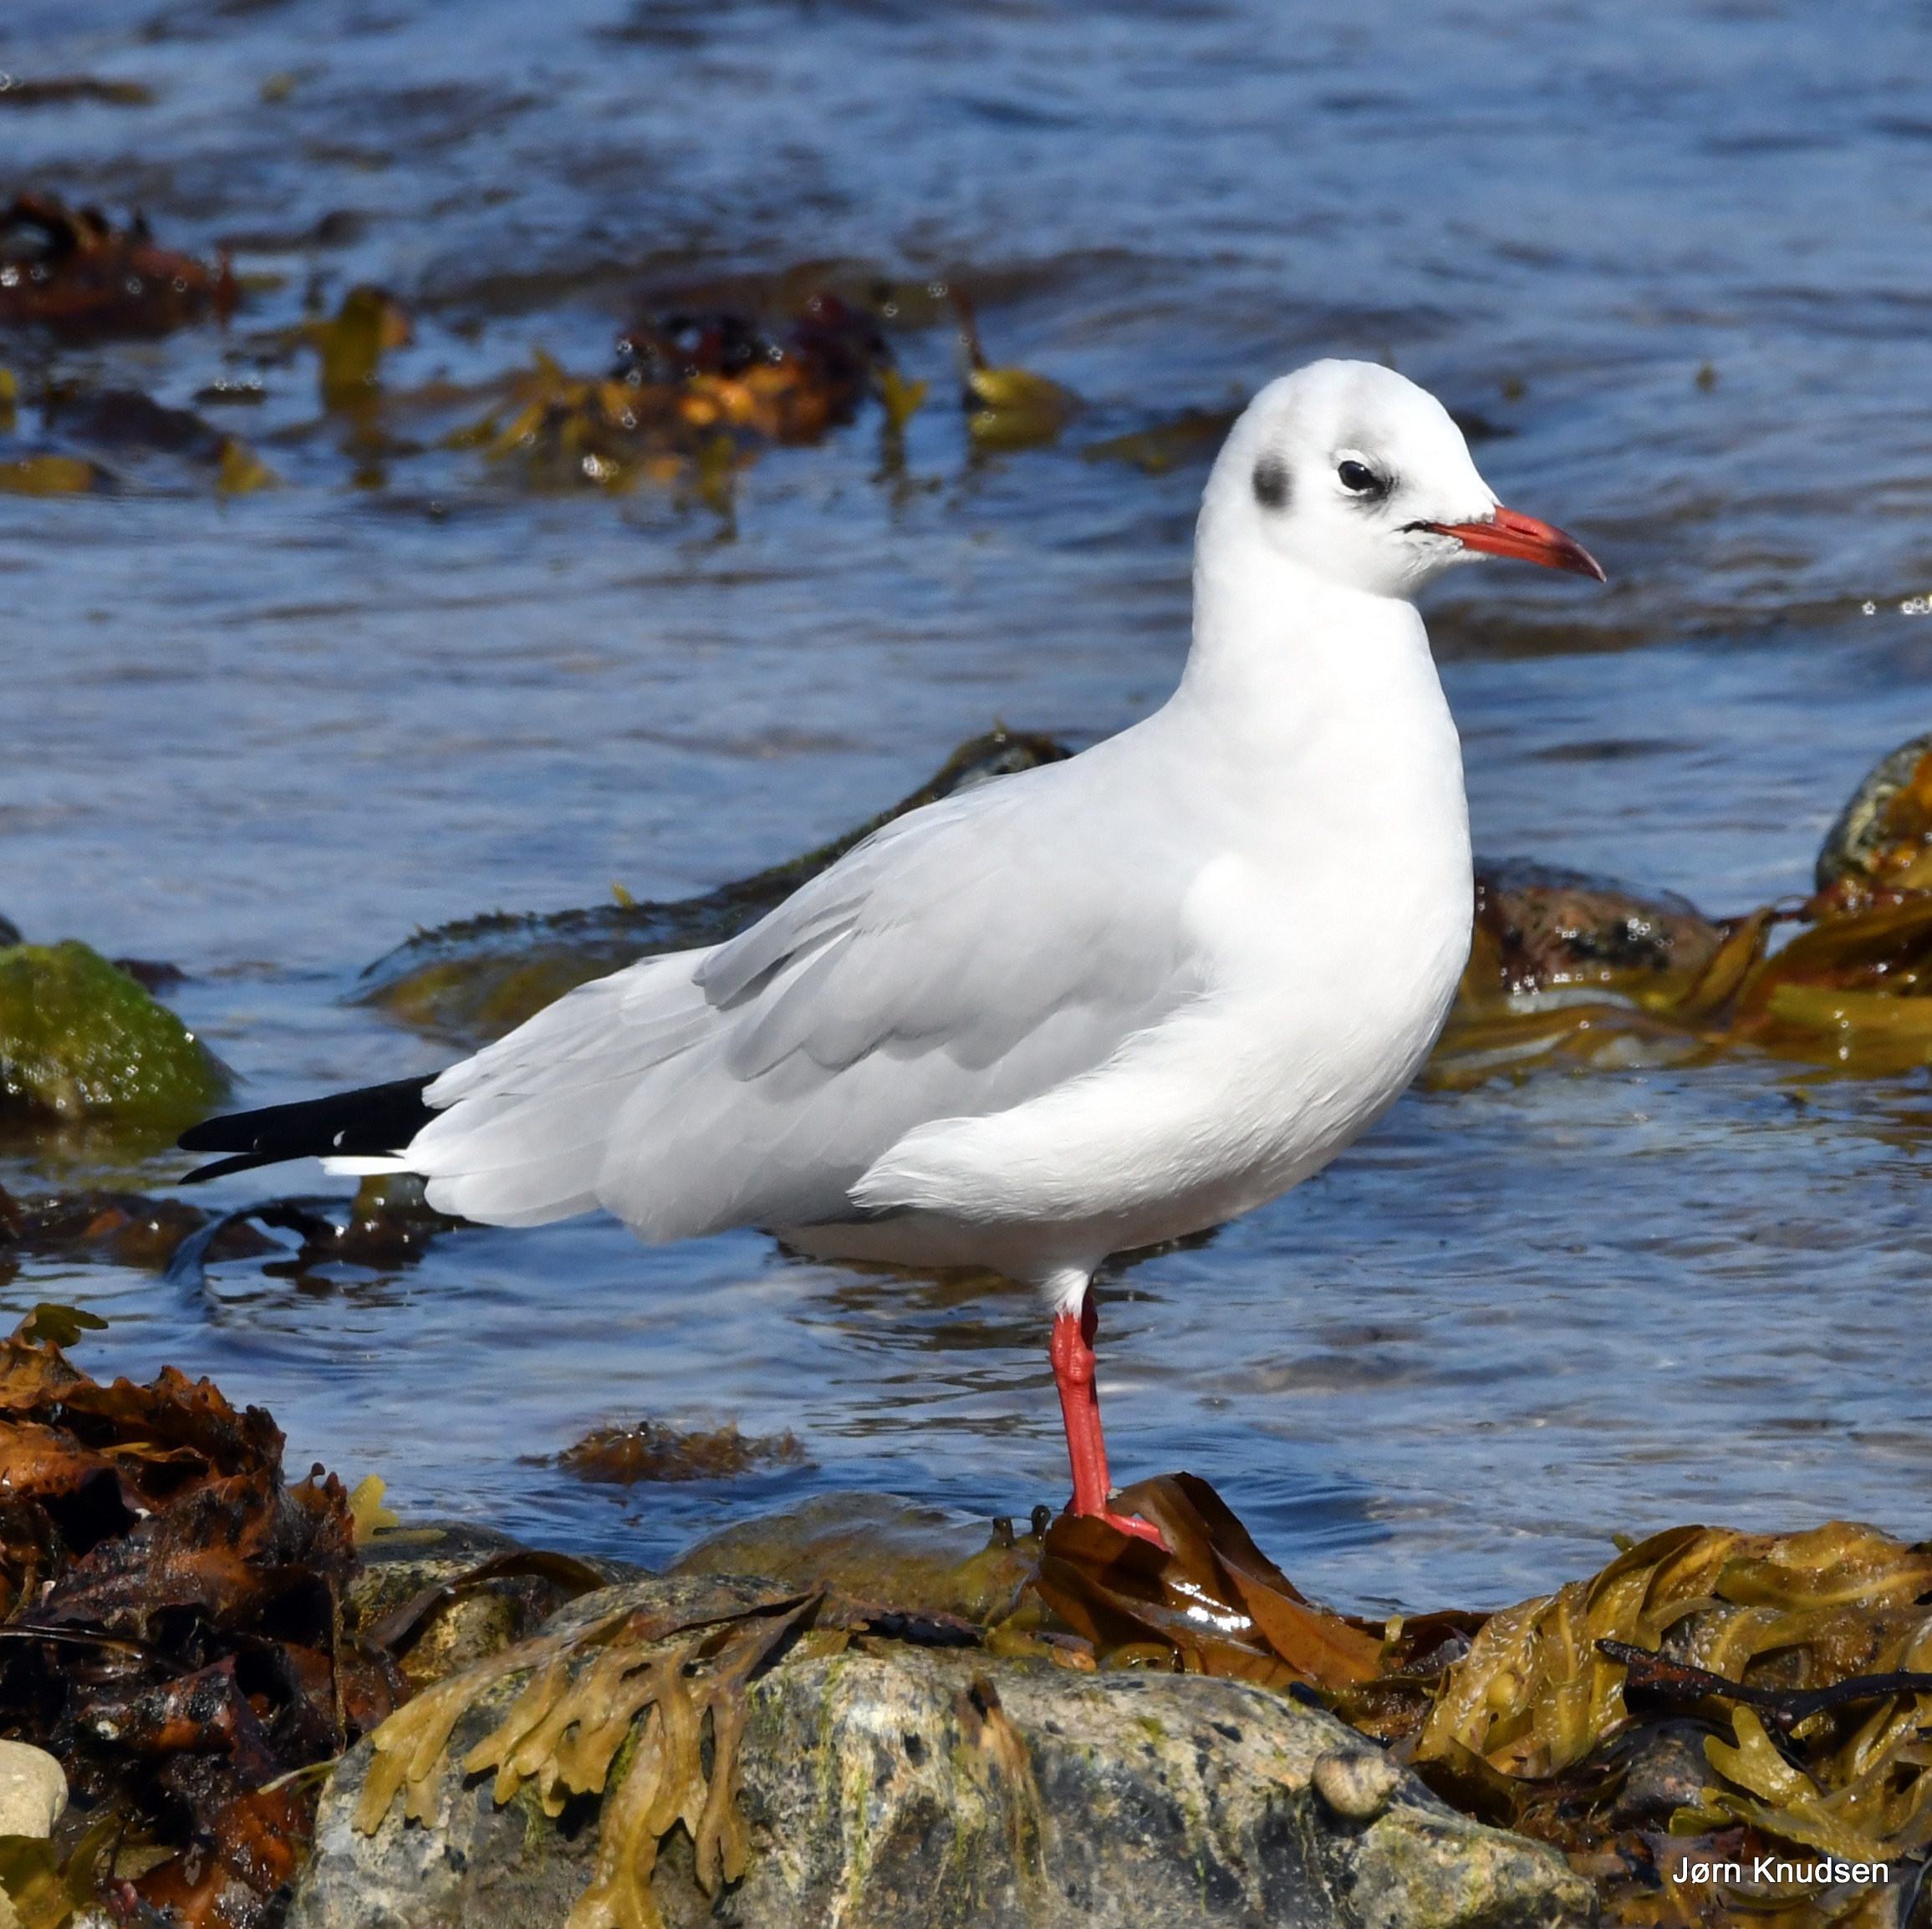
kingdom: Animalia
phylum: Chordata
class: Aves
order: Charadriiformes
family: Laridae
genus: Chroicocephalus
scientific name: Chroicocephalus ridibundus
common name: Hættemåge
